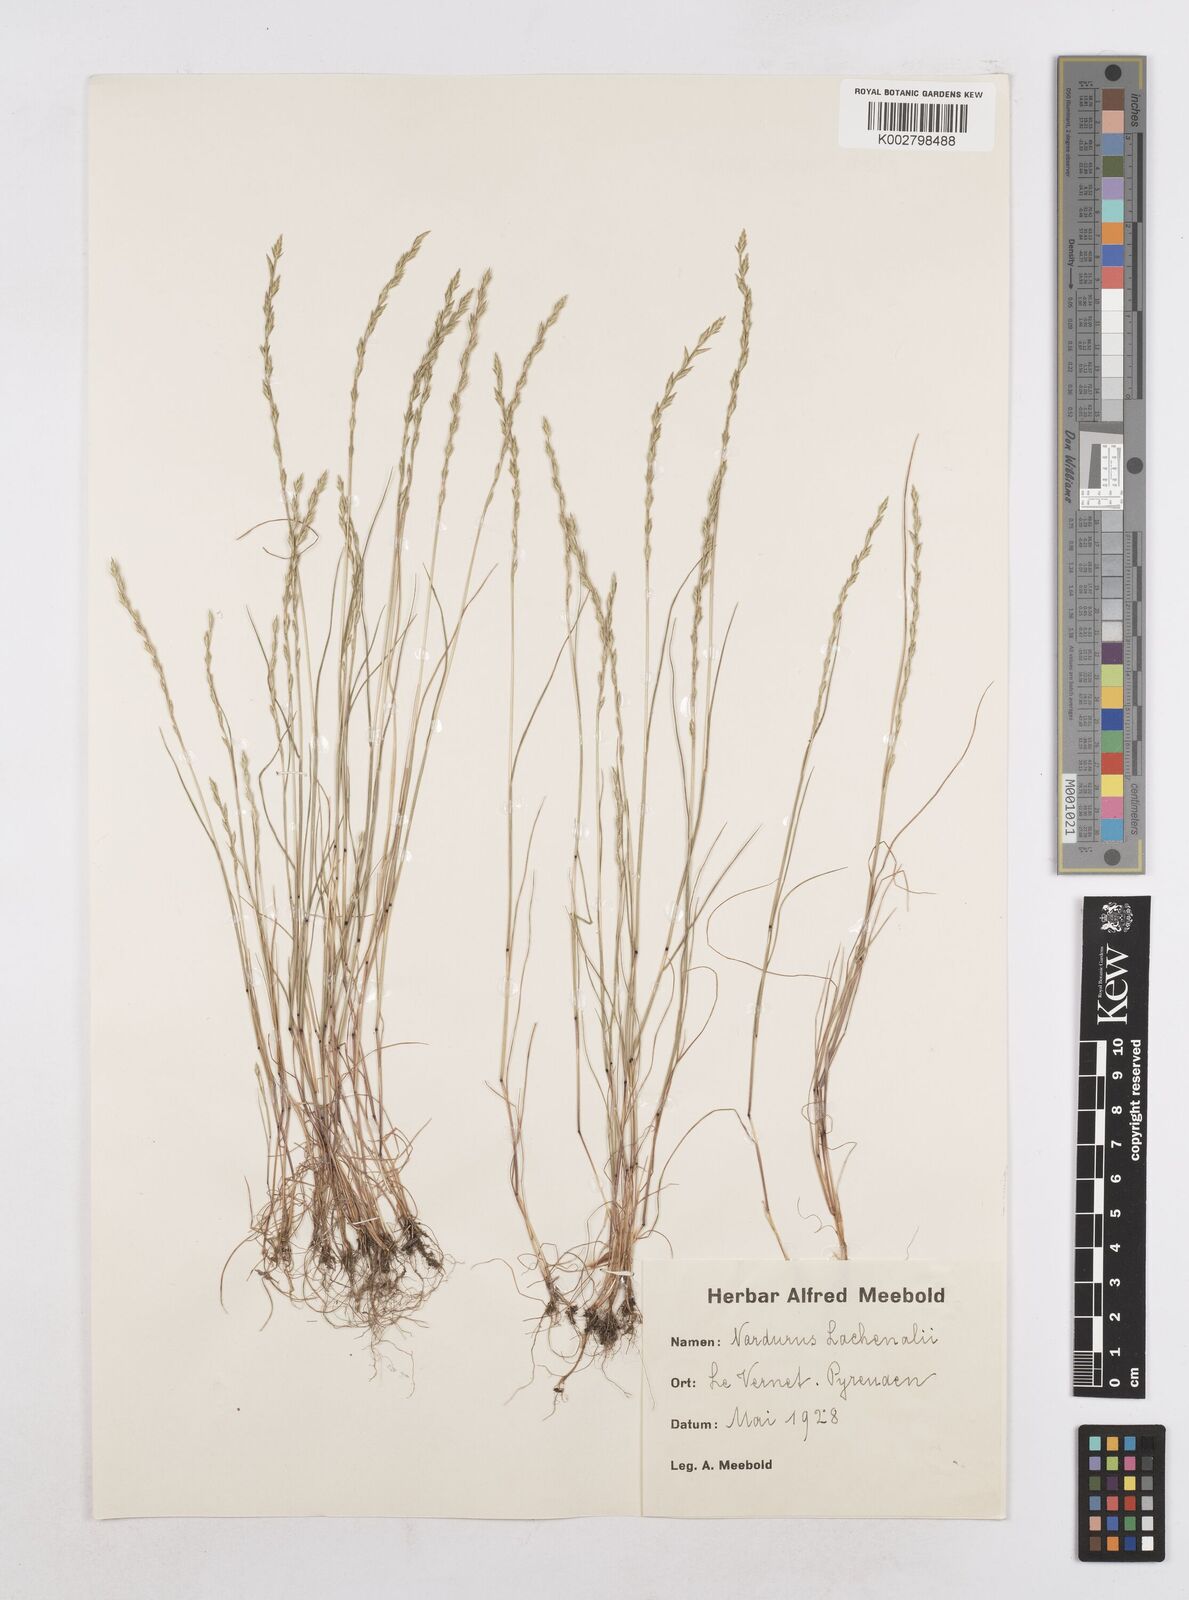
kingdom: Plantae
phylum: Tracheophyta
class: Liliopsida
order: Poales
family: Poaceae
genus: Festuca
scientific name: Festuca lachenalii
